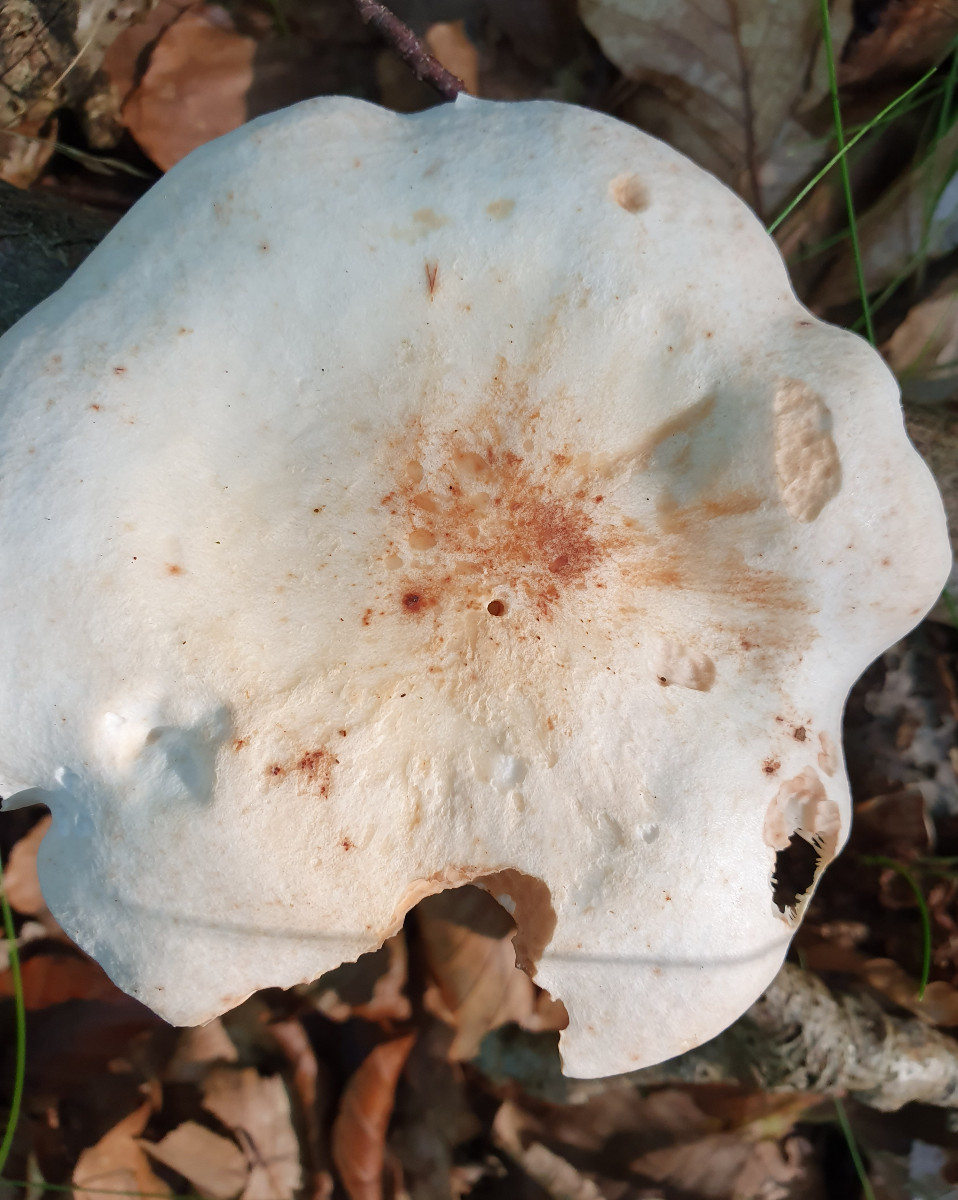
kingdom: Fungi
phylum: Basidiomycota
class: Agaricomycetes
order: Agaricales
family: Omphalotaceae
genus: Rhodocollybia
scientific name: Rhodocollybia maculata
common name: plettet fladhat
